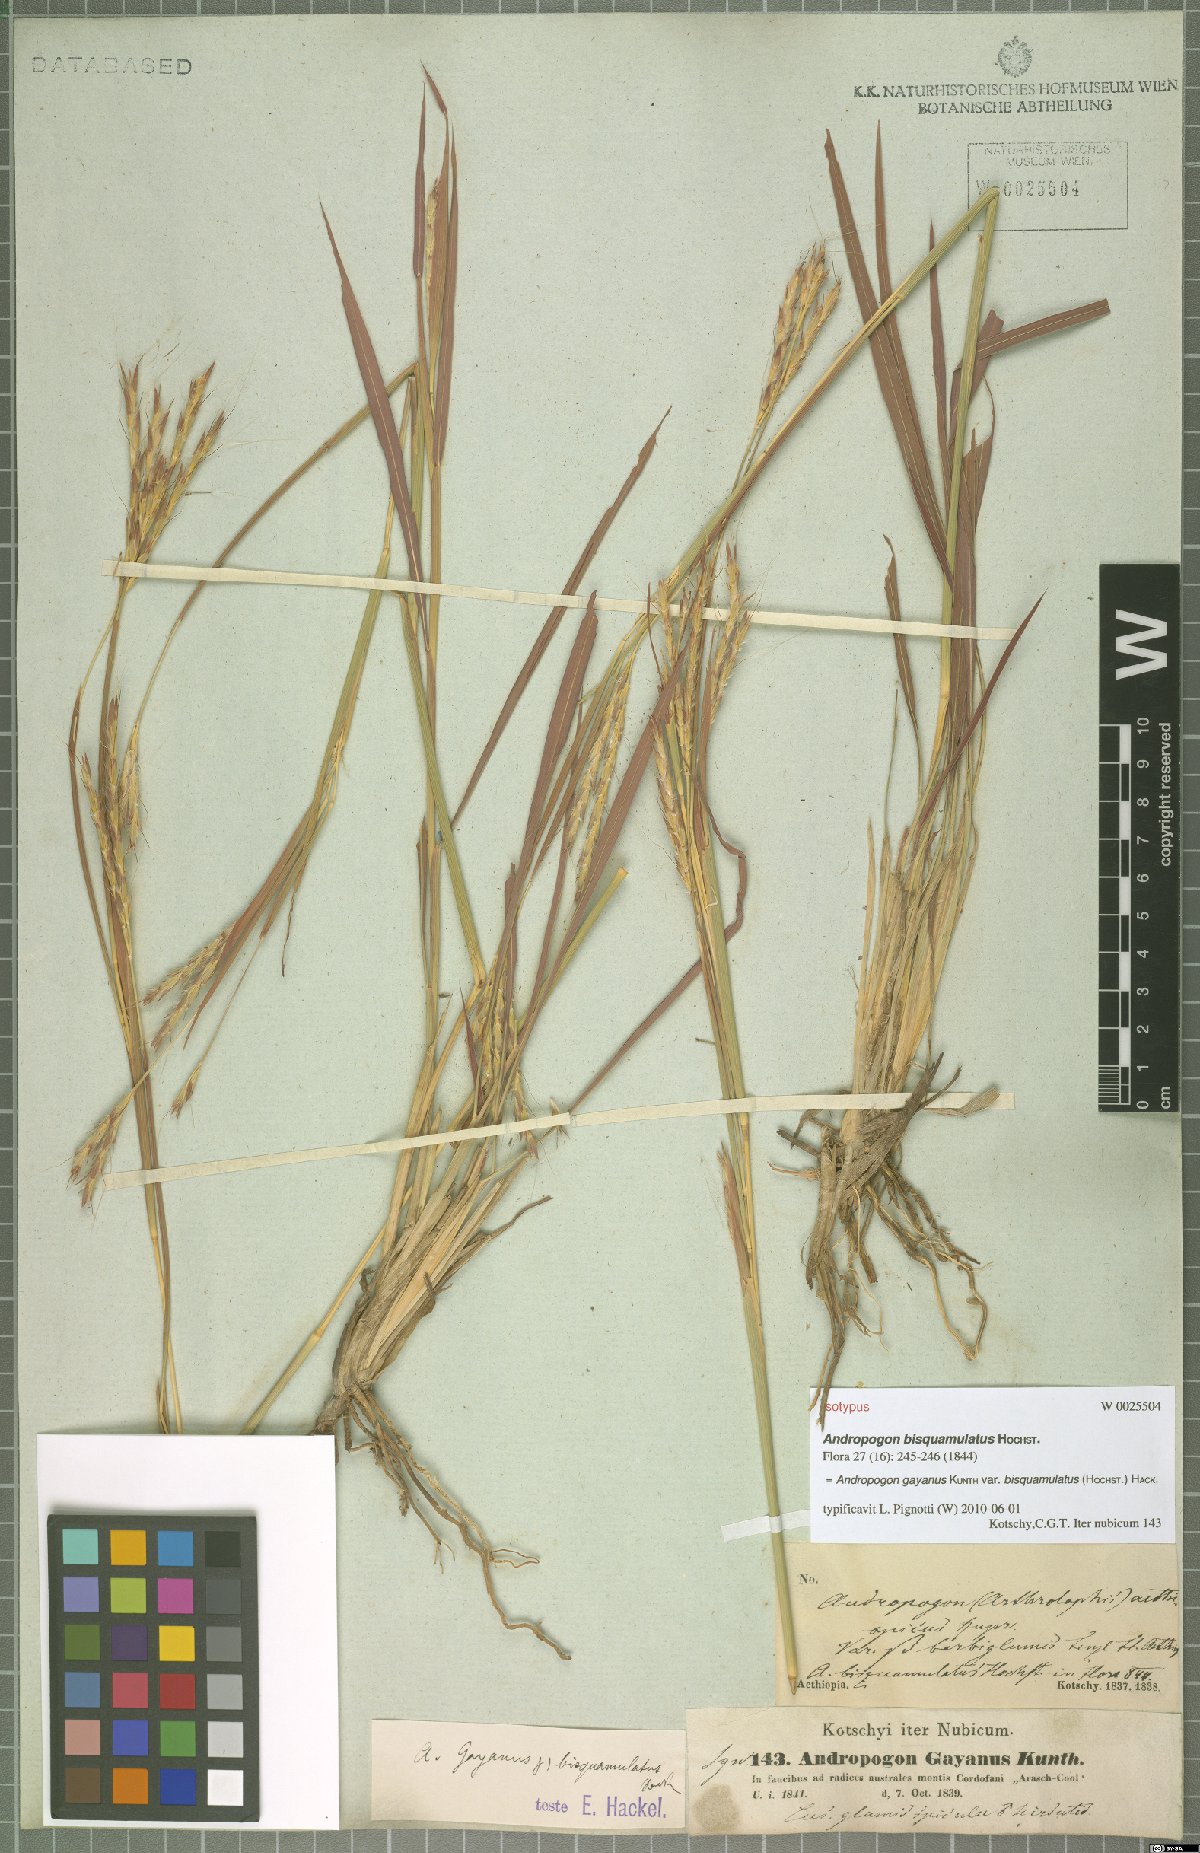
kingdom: Plantae
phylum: Tracheophyta
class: Liliopsida
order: Poales
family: Poaceae
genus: Andropogon
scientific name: Andropogon gayanus
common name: Tambuki grass
